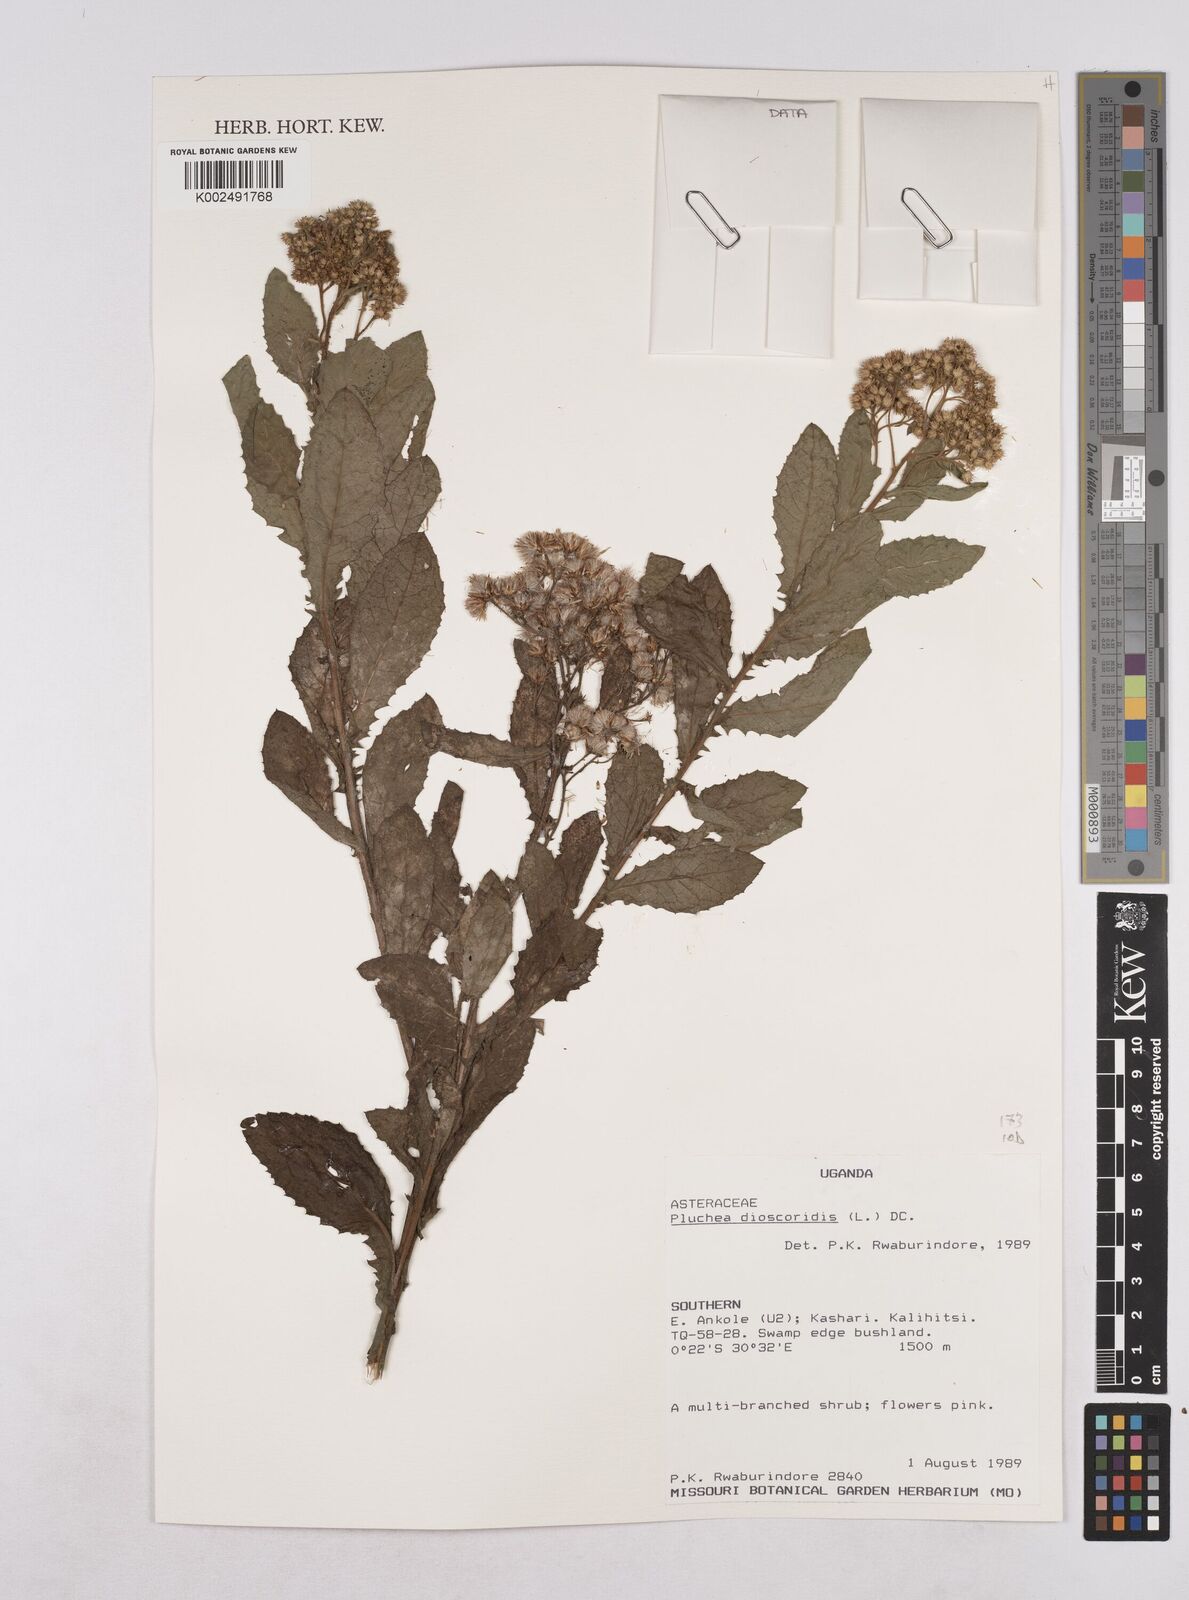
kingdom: Plantae
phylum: Tracheophyta
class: Magnoliopsida
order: Asterales
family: Asteraceae
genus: Pluchea
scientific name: Pluchea dioscoridis
